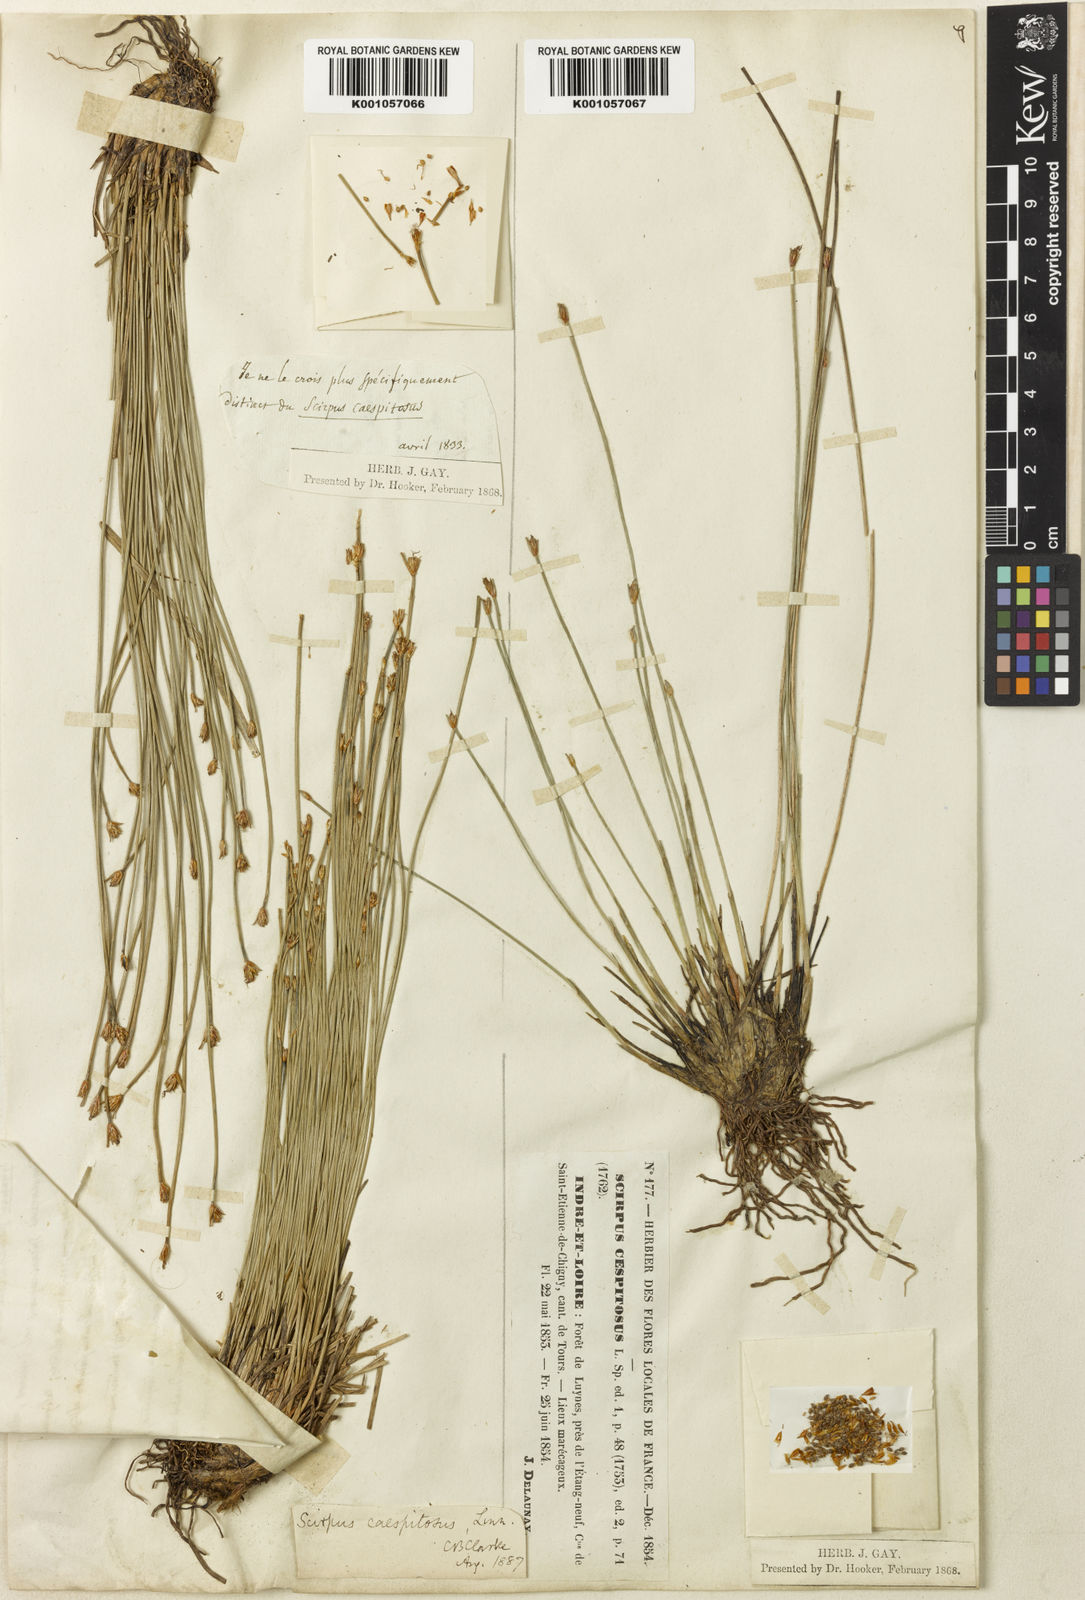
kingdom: Plantae
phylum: Tracheophyta
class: Liliopsida
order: Poales
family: Cyperaceae
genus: Trichophorum
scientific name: Trichophorum cespitosum
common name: Cespitose bulrush
